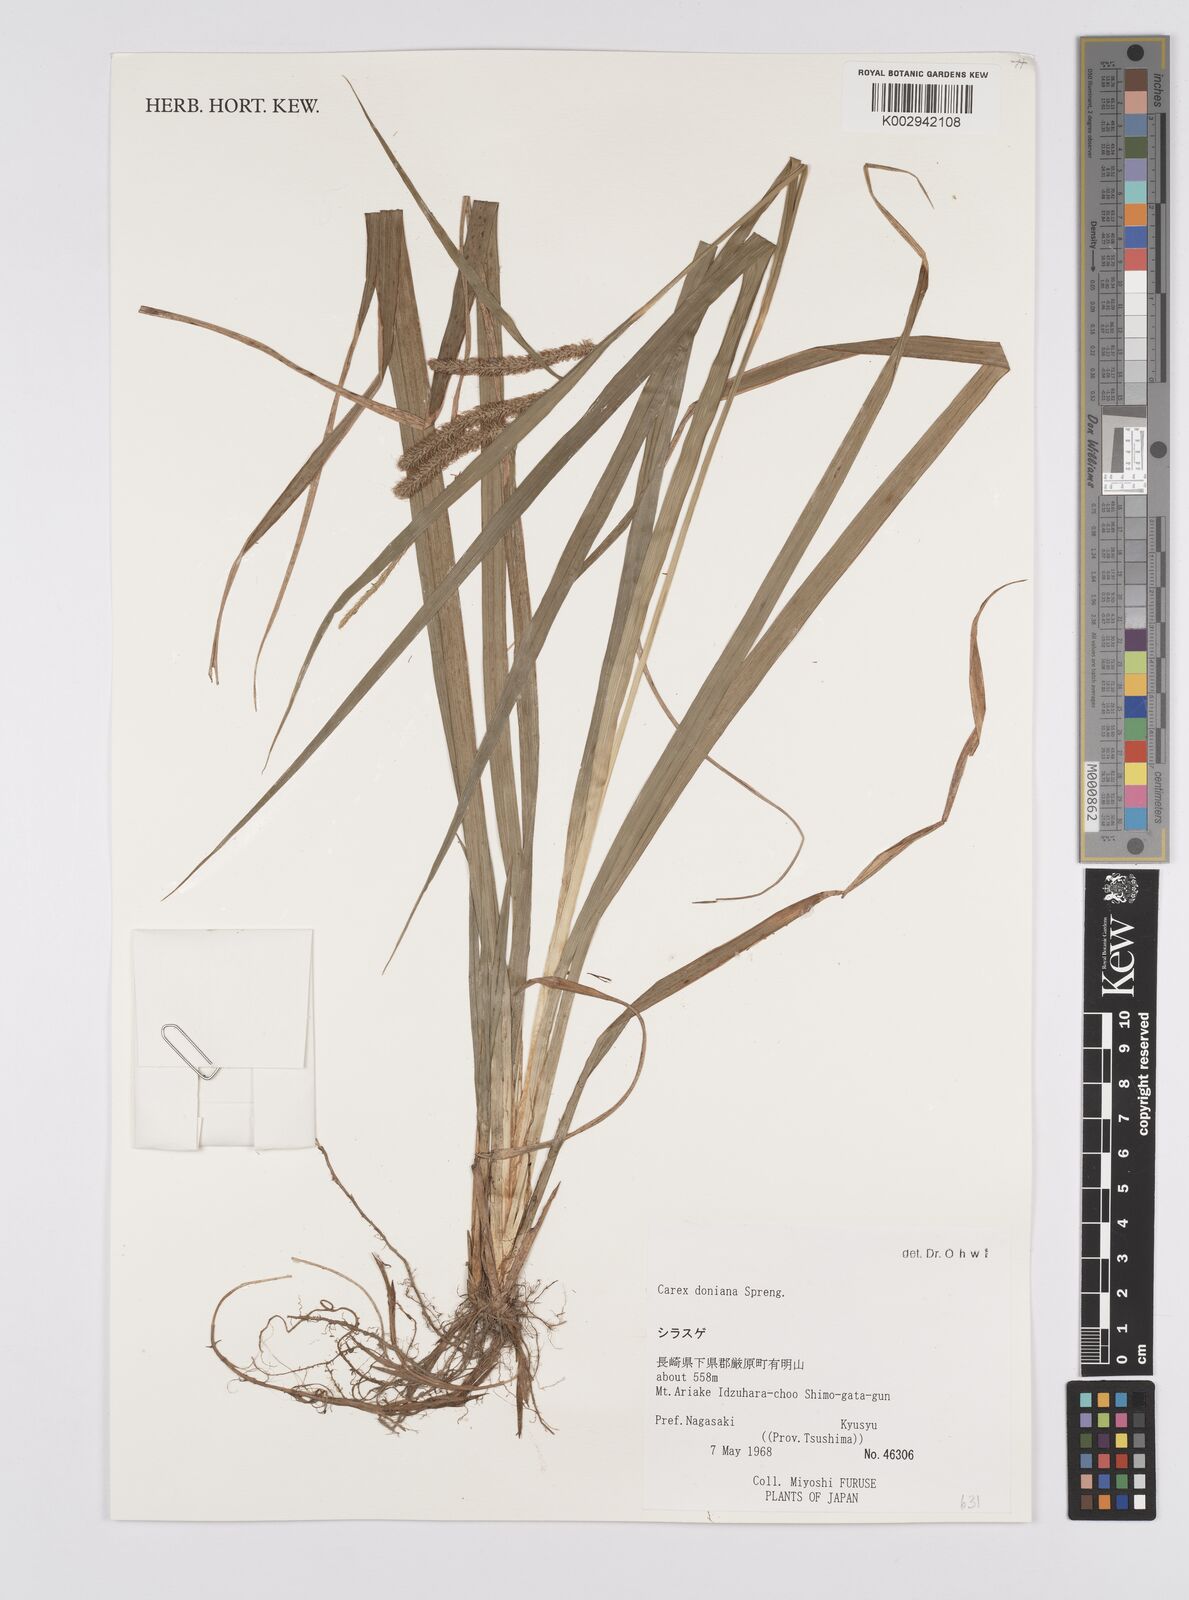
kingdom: Plantae
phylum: Tracheophyta
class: Liliopsida
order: Poales
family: Cyperaceae
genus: Carex
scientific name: Carex japonica
